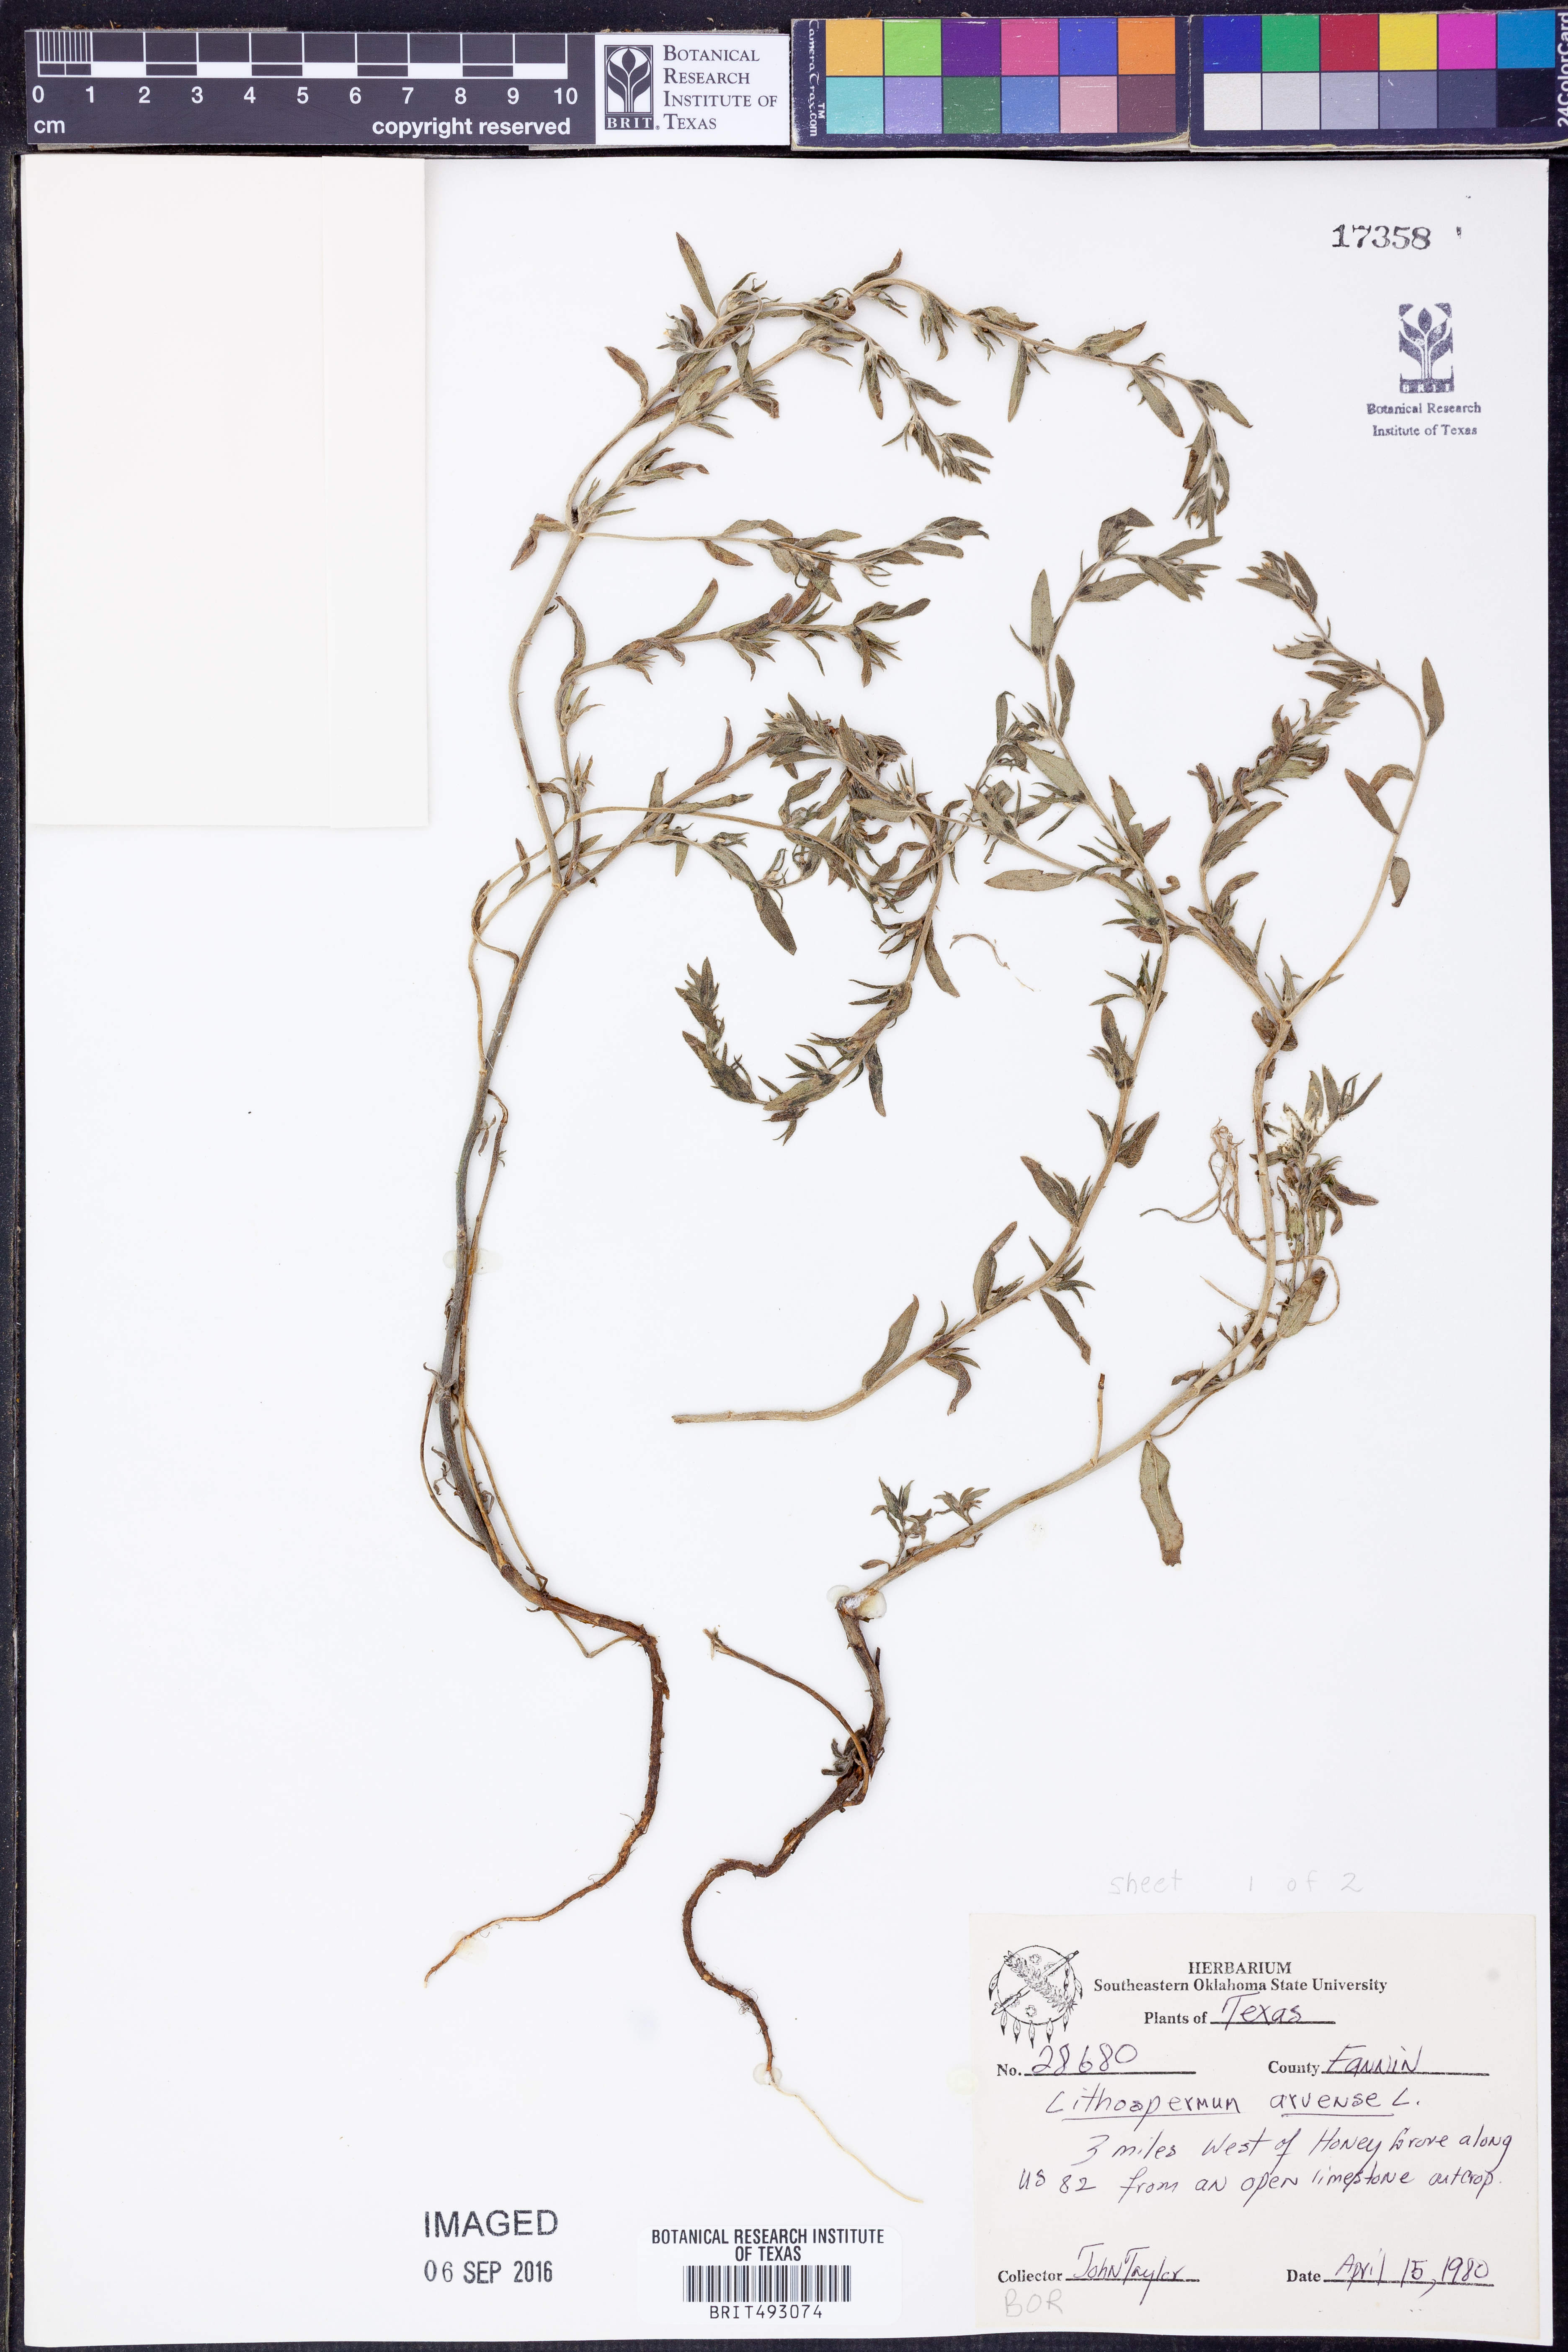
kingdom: Plantae
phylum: Tracheophyta
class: Magnoliopsida
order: Boraginales
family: Boraginaceae
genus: Lithospermum
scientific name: Lithospermum erythrorhizon
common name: Purple gromwell
